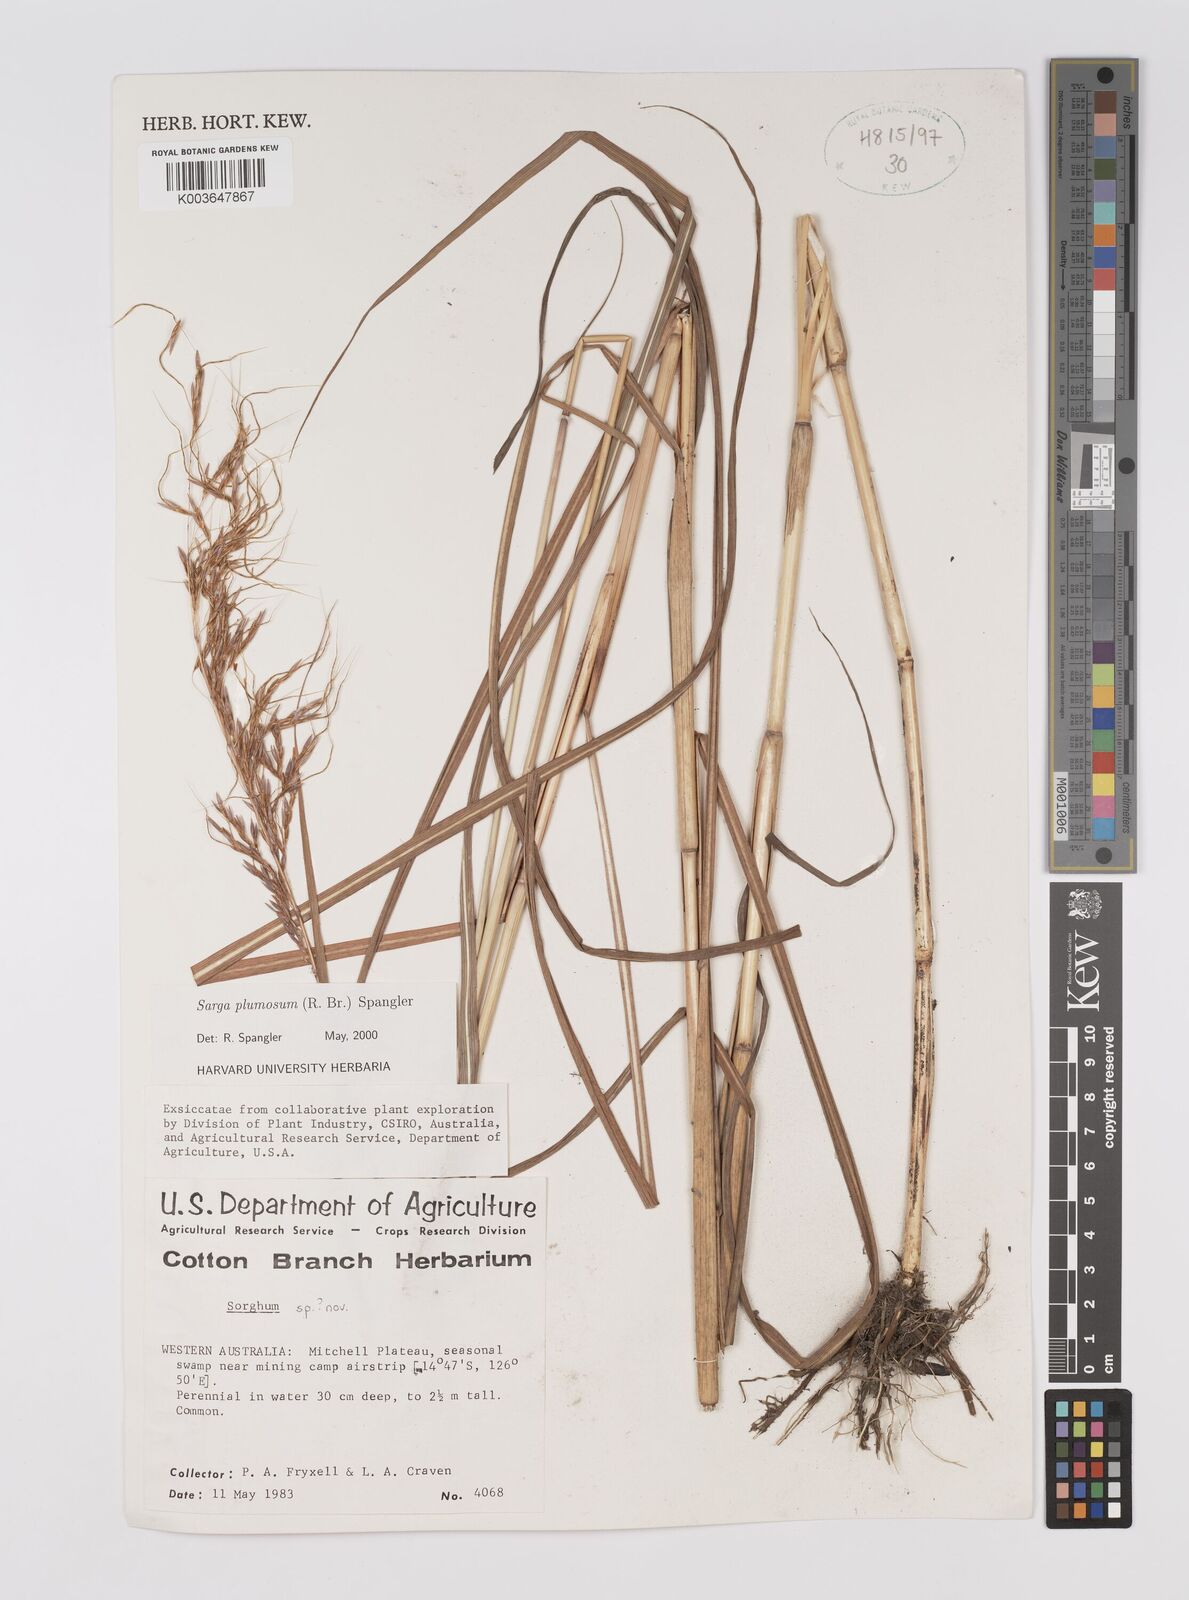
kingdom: Plantae
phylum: Tracheophyta
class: Liliopsida
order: Poales
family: Poaceae
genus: Sarga
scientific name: Sarga plumosa
